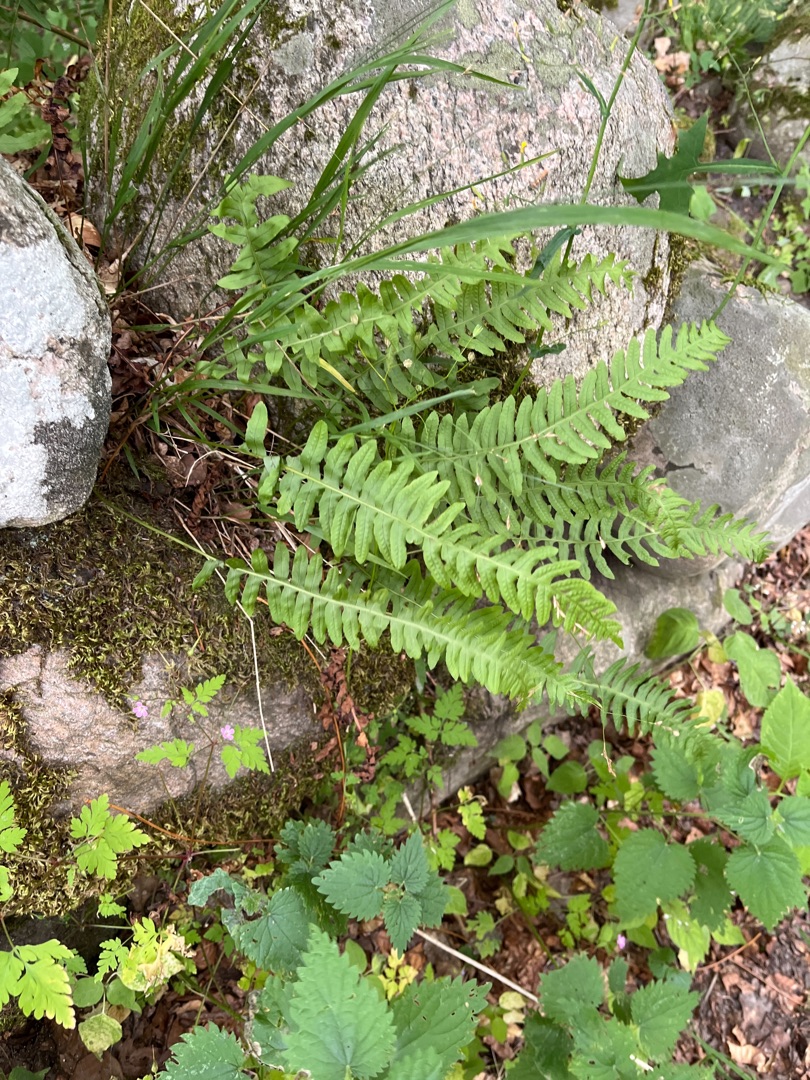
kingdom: Plantae
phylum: Tracheophyta
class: Polypodiopsida
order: Polypodiales
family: Polypodiaceae
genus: Polypodium
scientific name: Polypodium vulgare
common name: Almindelig engelsød
